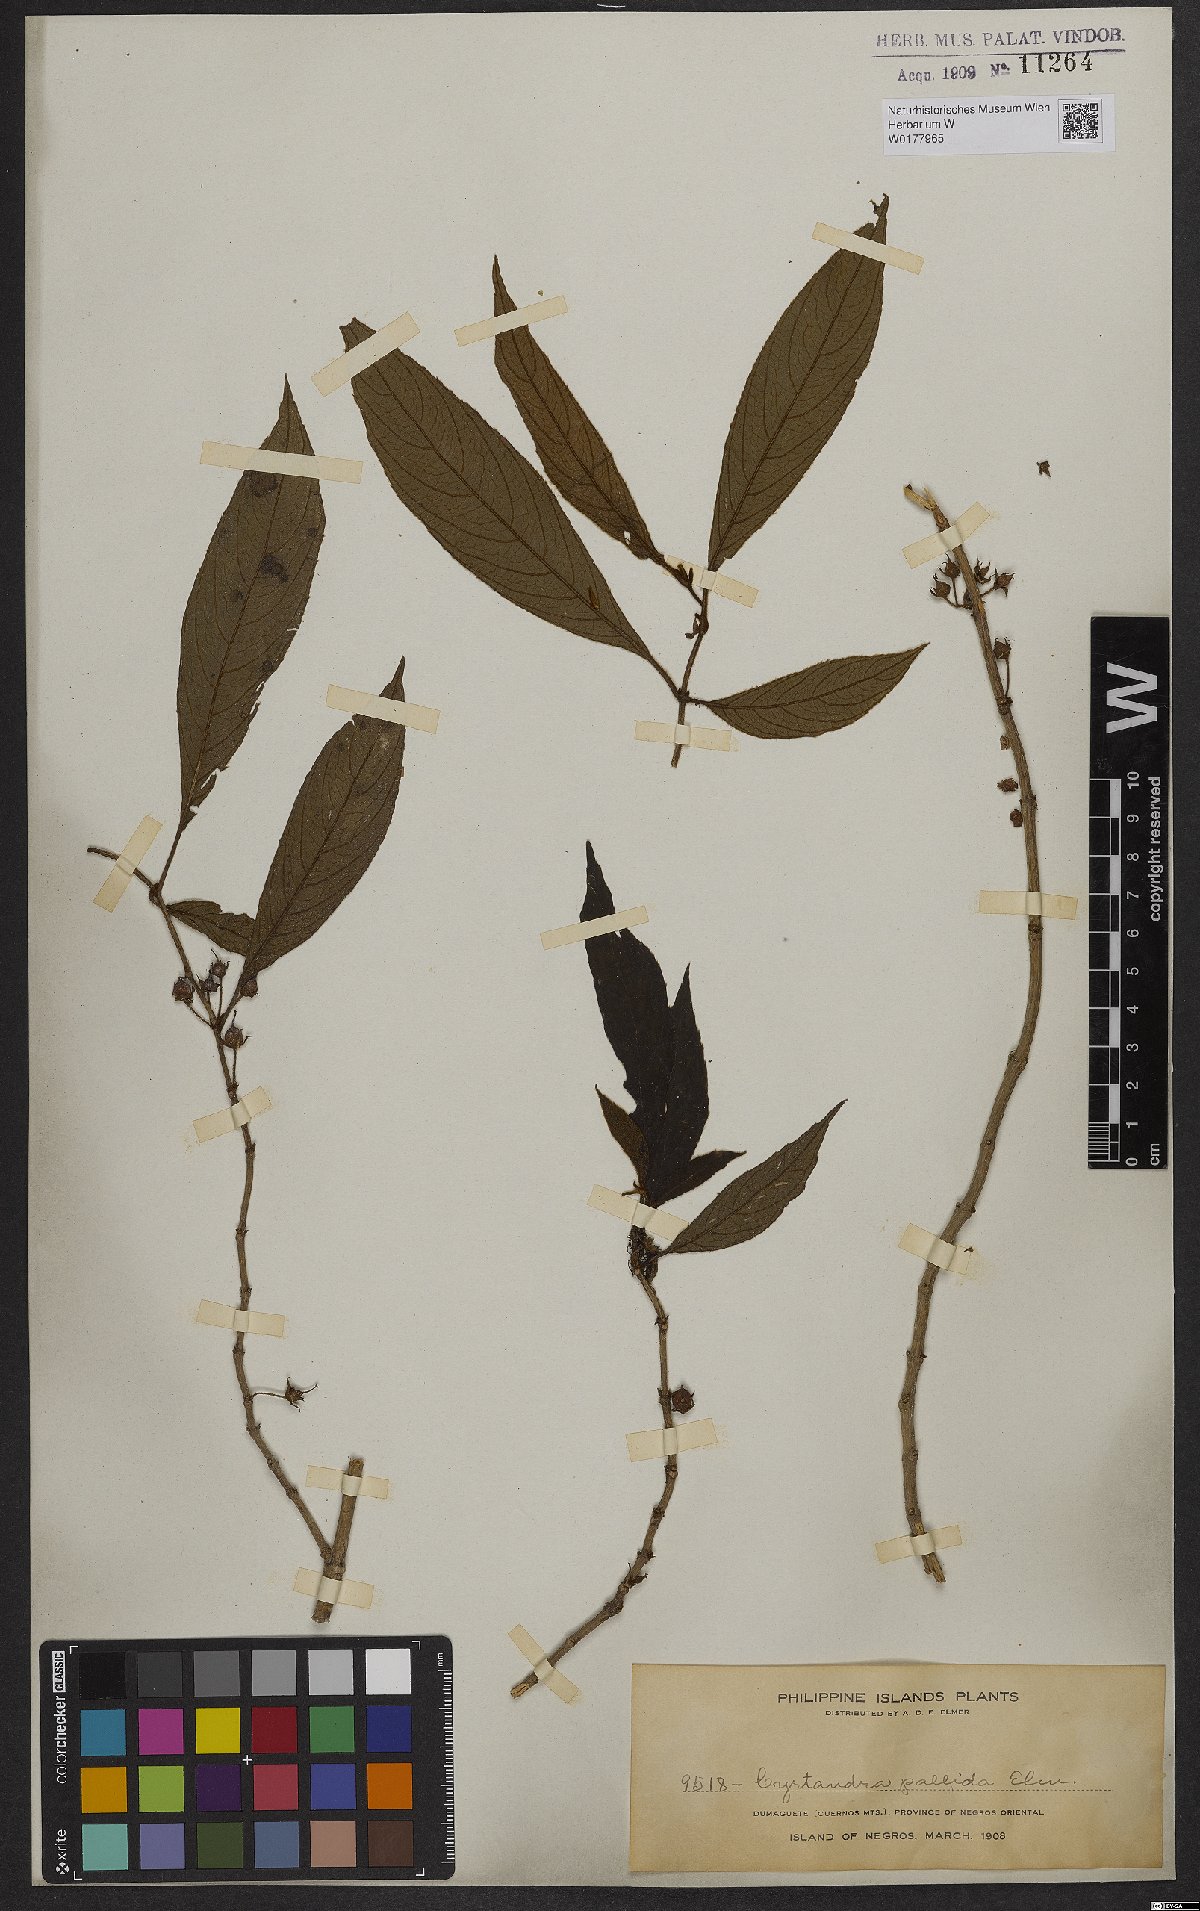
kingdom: Plantae
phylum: Tracheophyta
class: Magnoliopsida
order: Lamiales
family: Gesneriaceae
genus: Cyrtandra
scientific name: Cyrtandra
